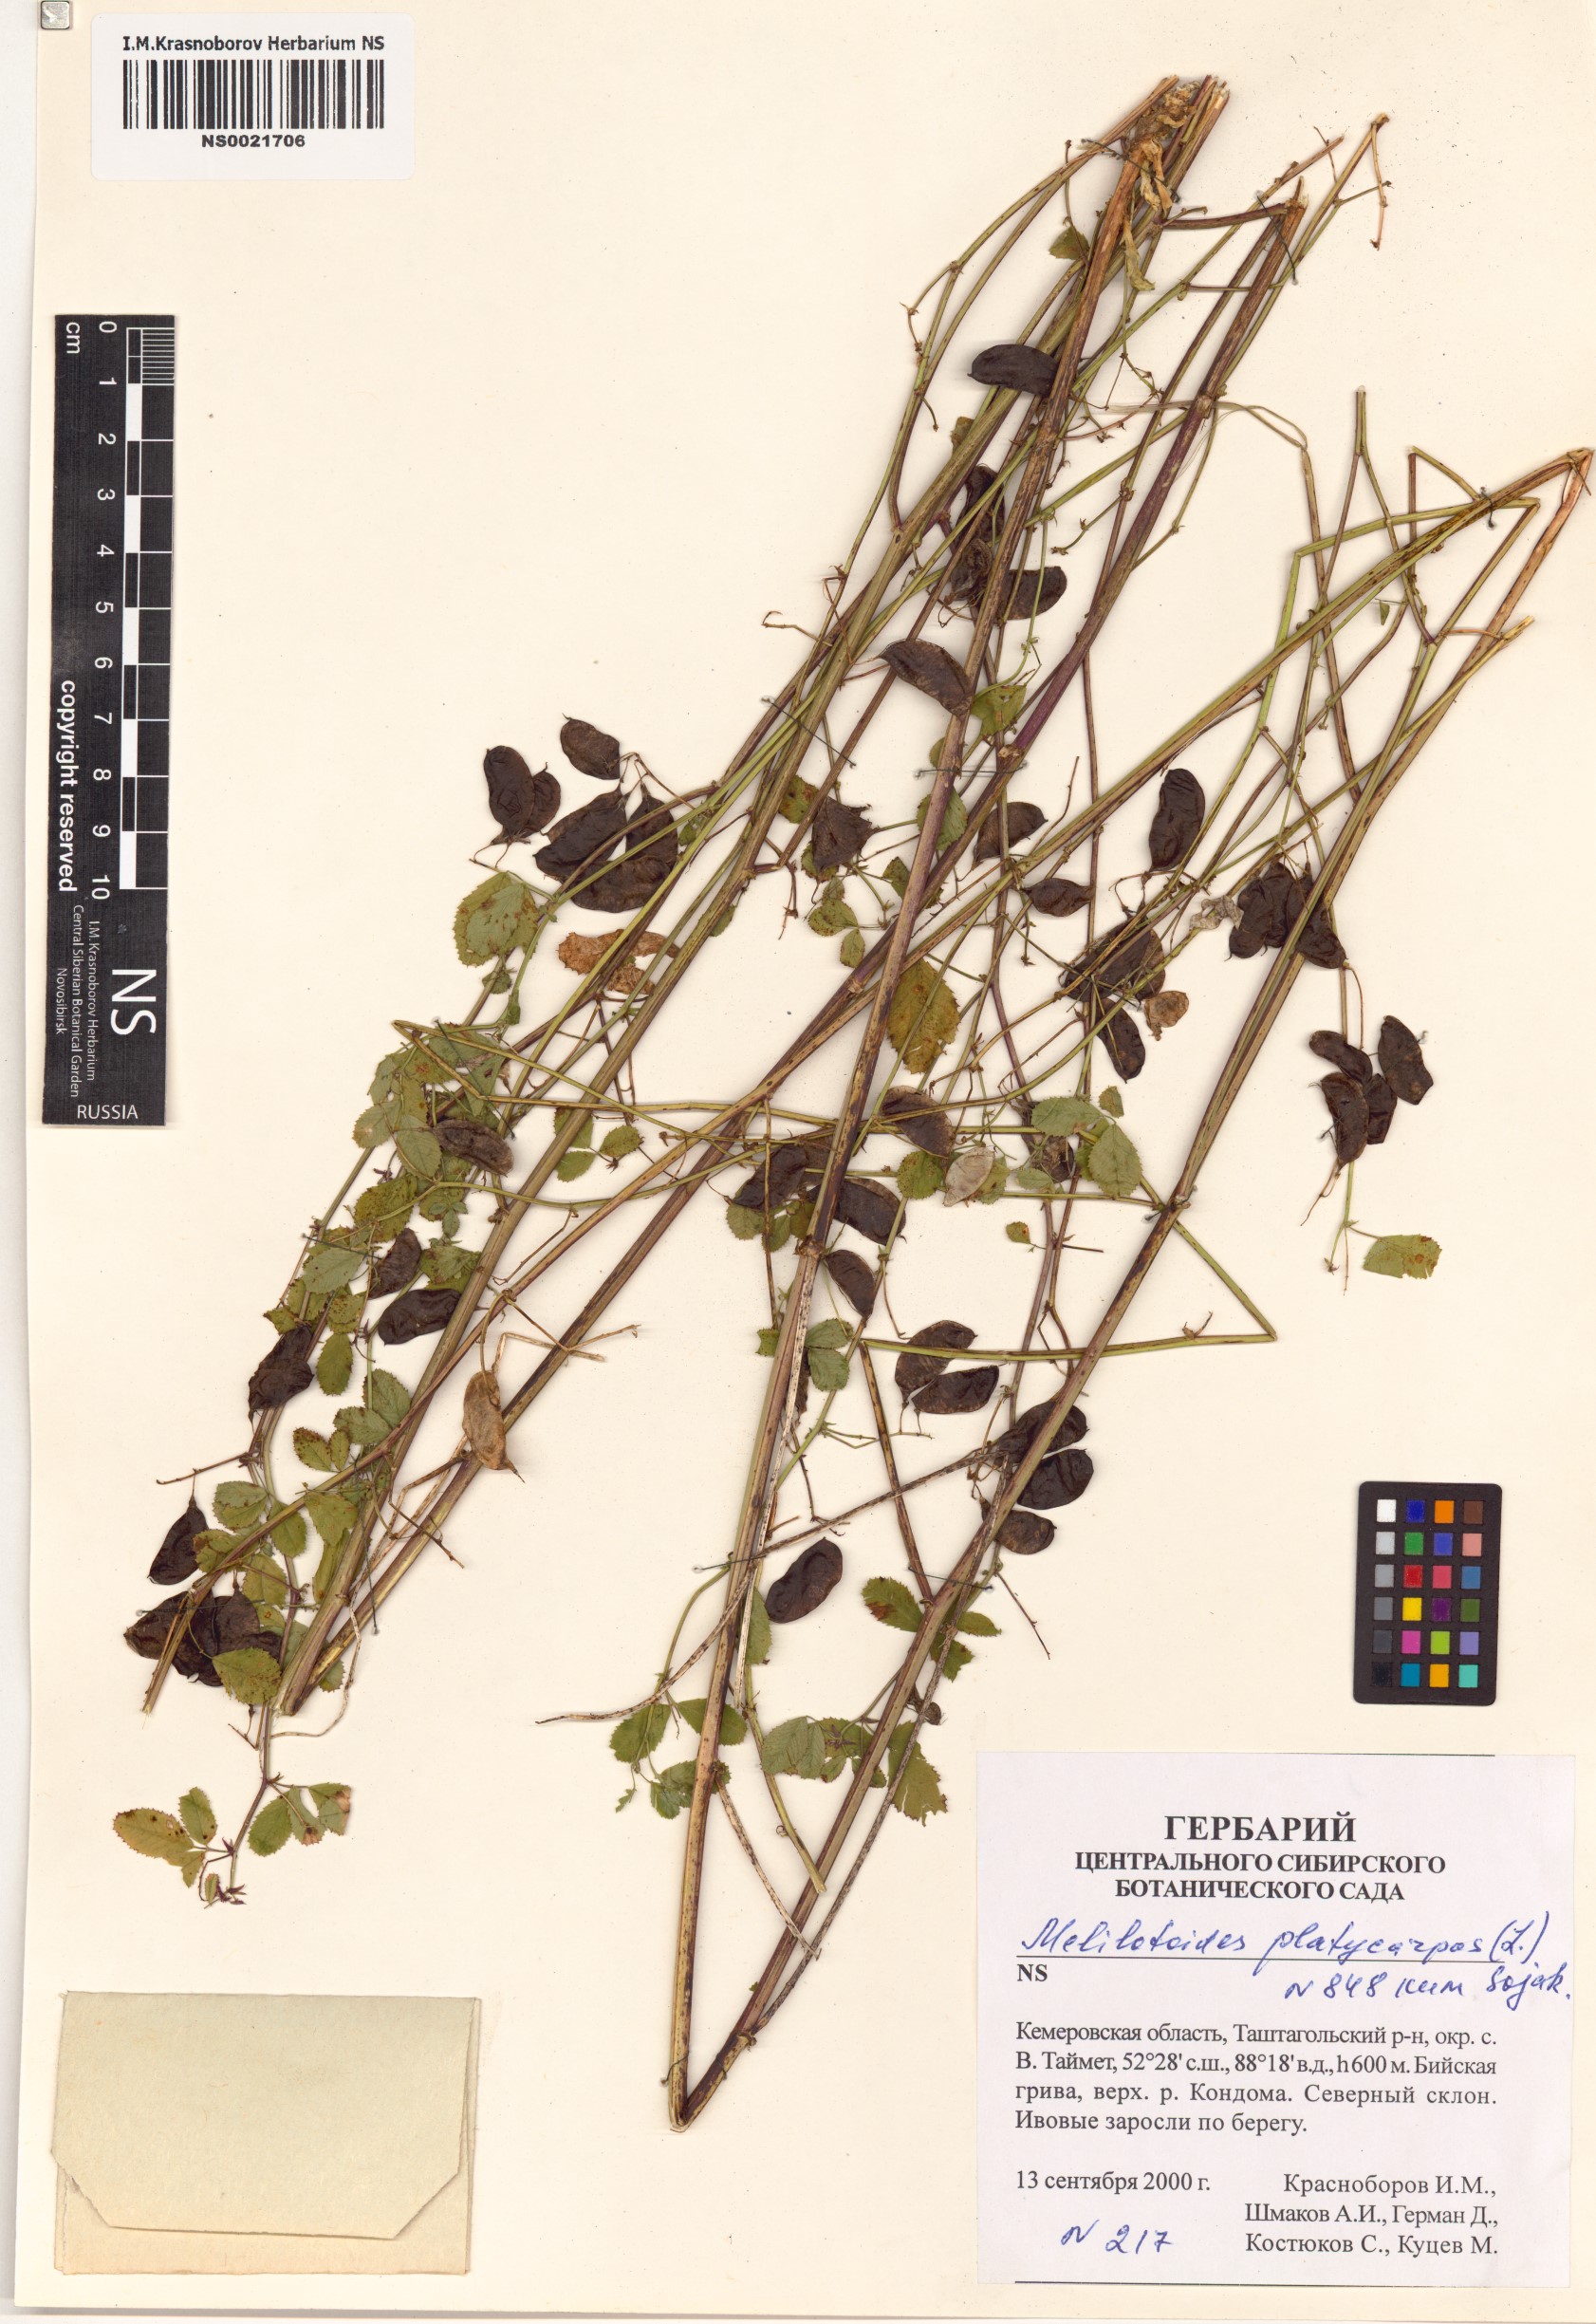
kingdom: Plantae
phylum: Tracheophyta
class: Magnoliopsida
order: Fabales
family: Fabaceae
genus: Medicago
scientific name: Medicago platycarpos
